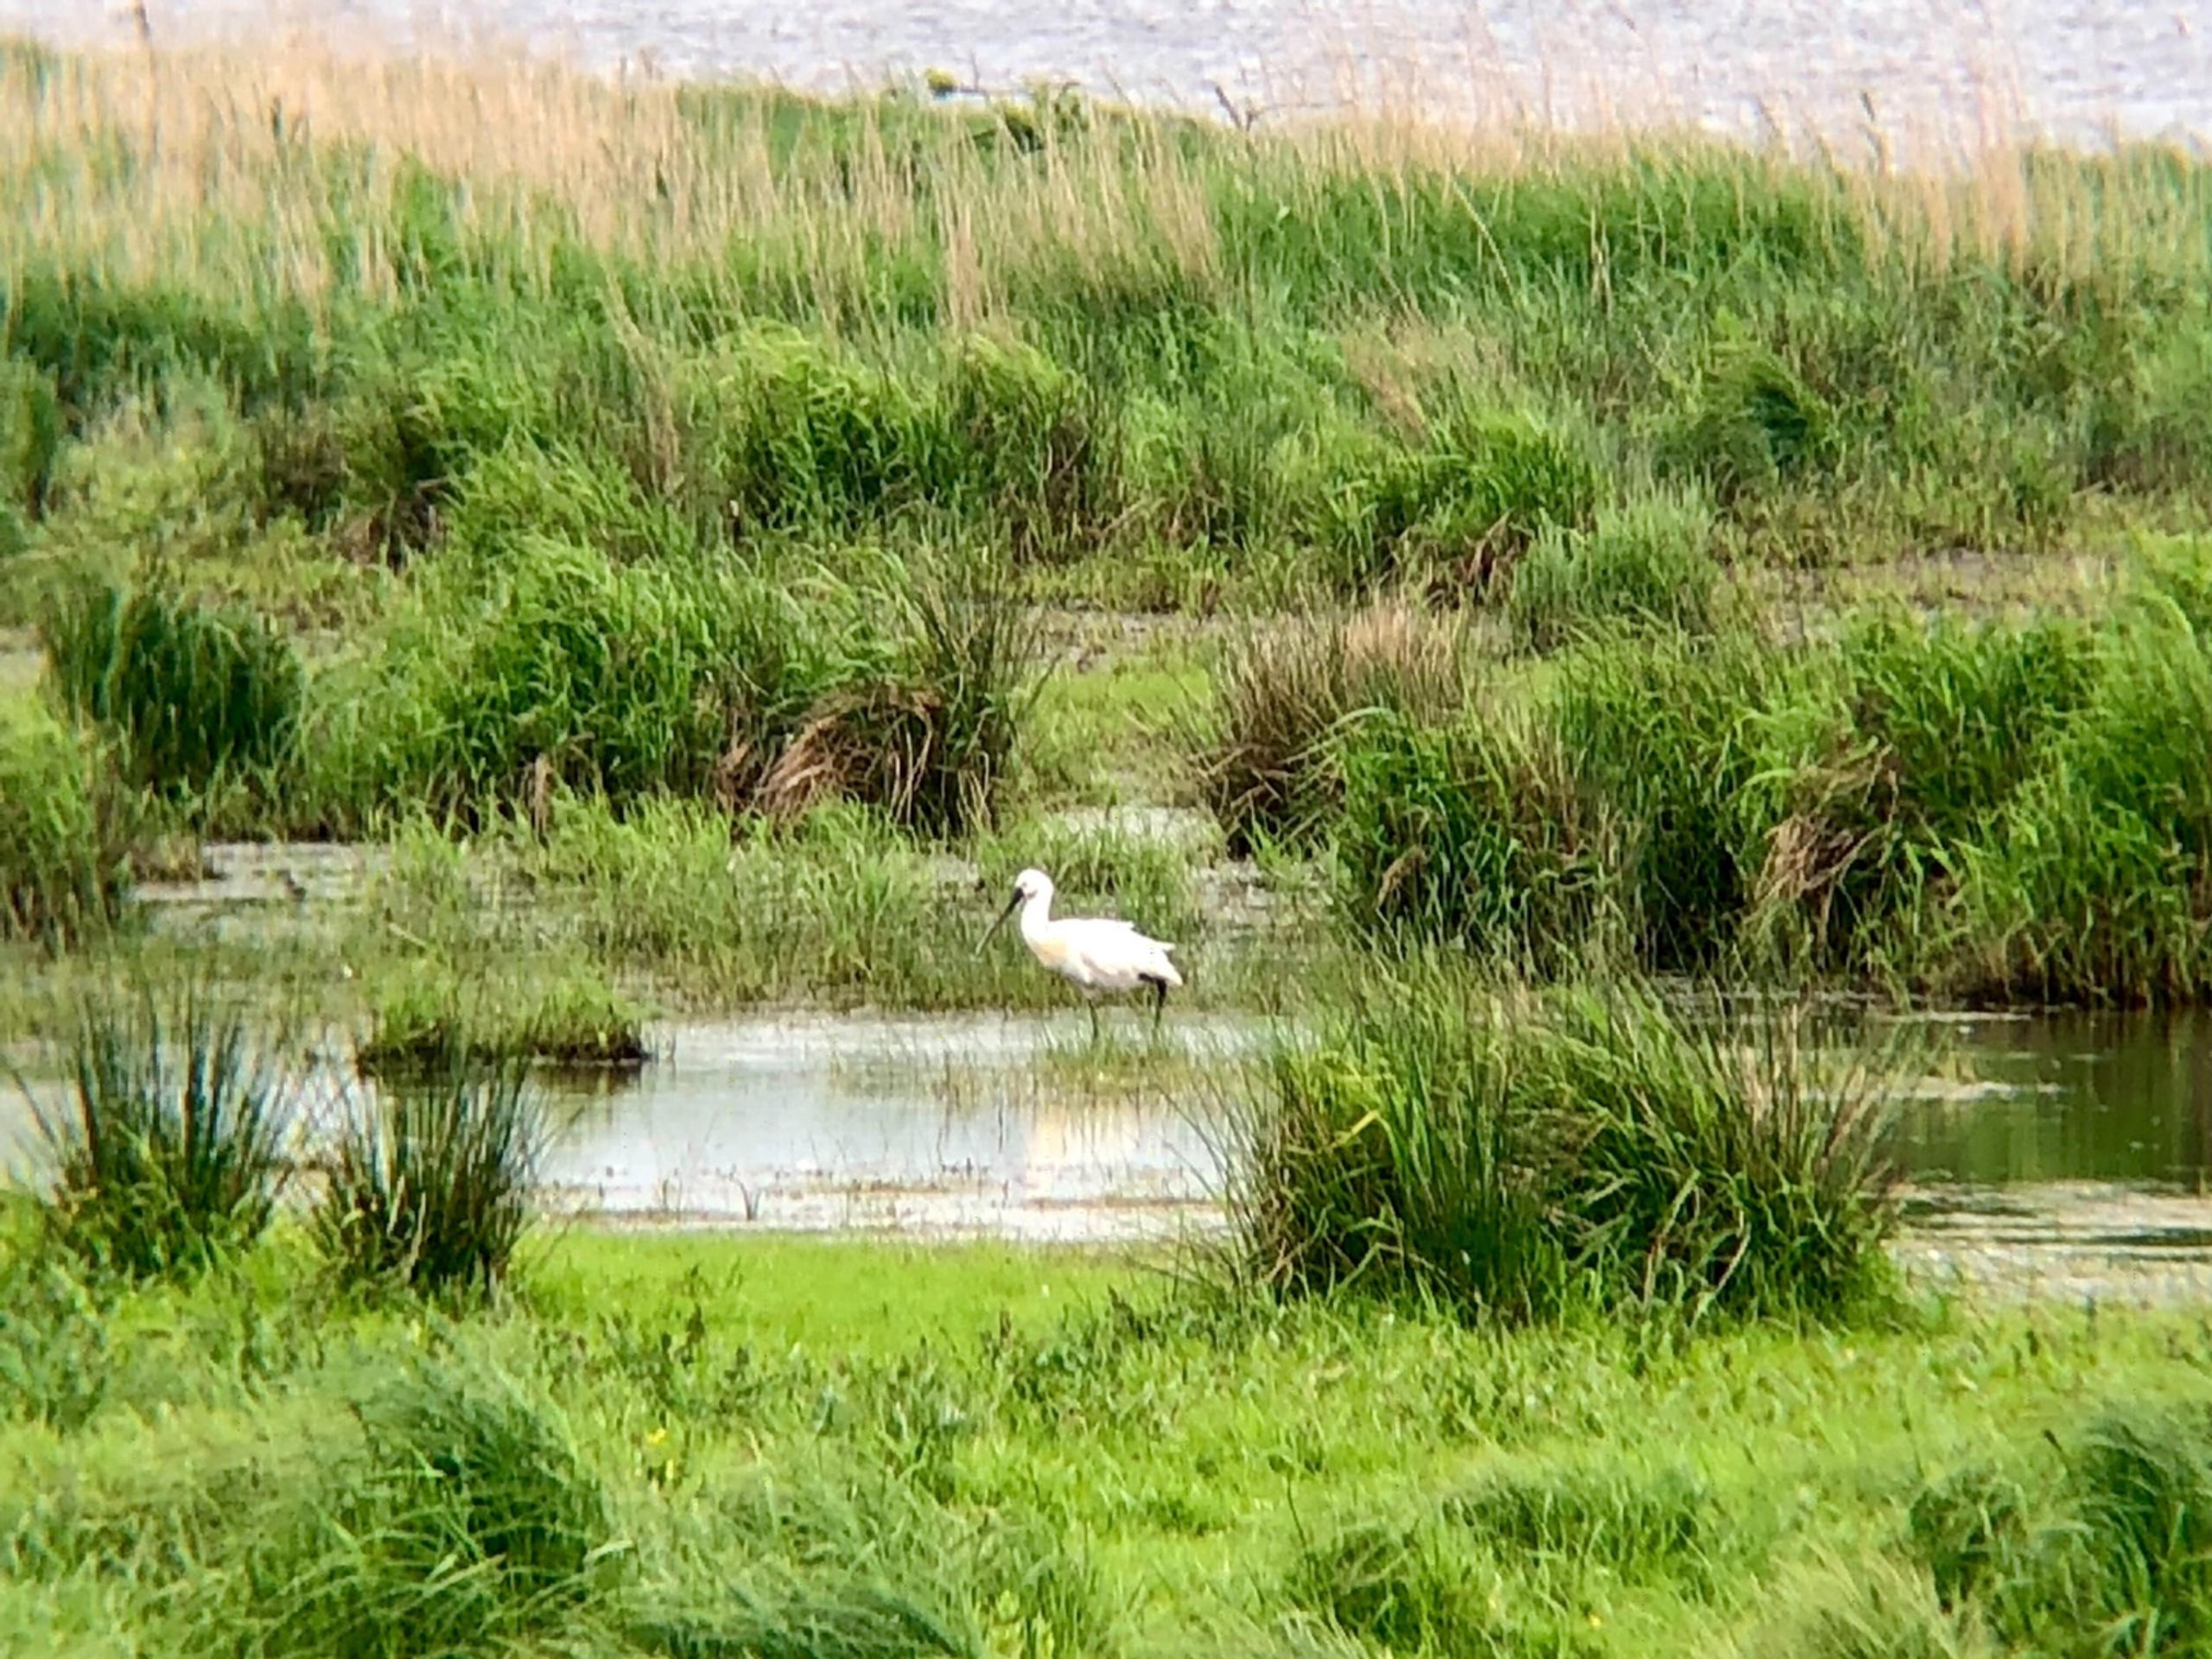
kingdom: Animalia
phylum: Chordata
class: Aves
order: Pelecaniformes
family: Threskiornithidae
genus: Platalea
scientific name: Platalea leucorodia
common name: Skestork
